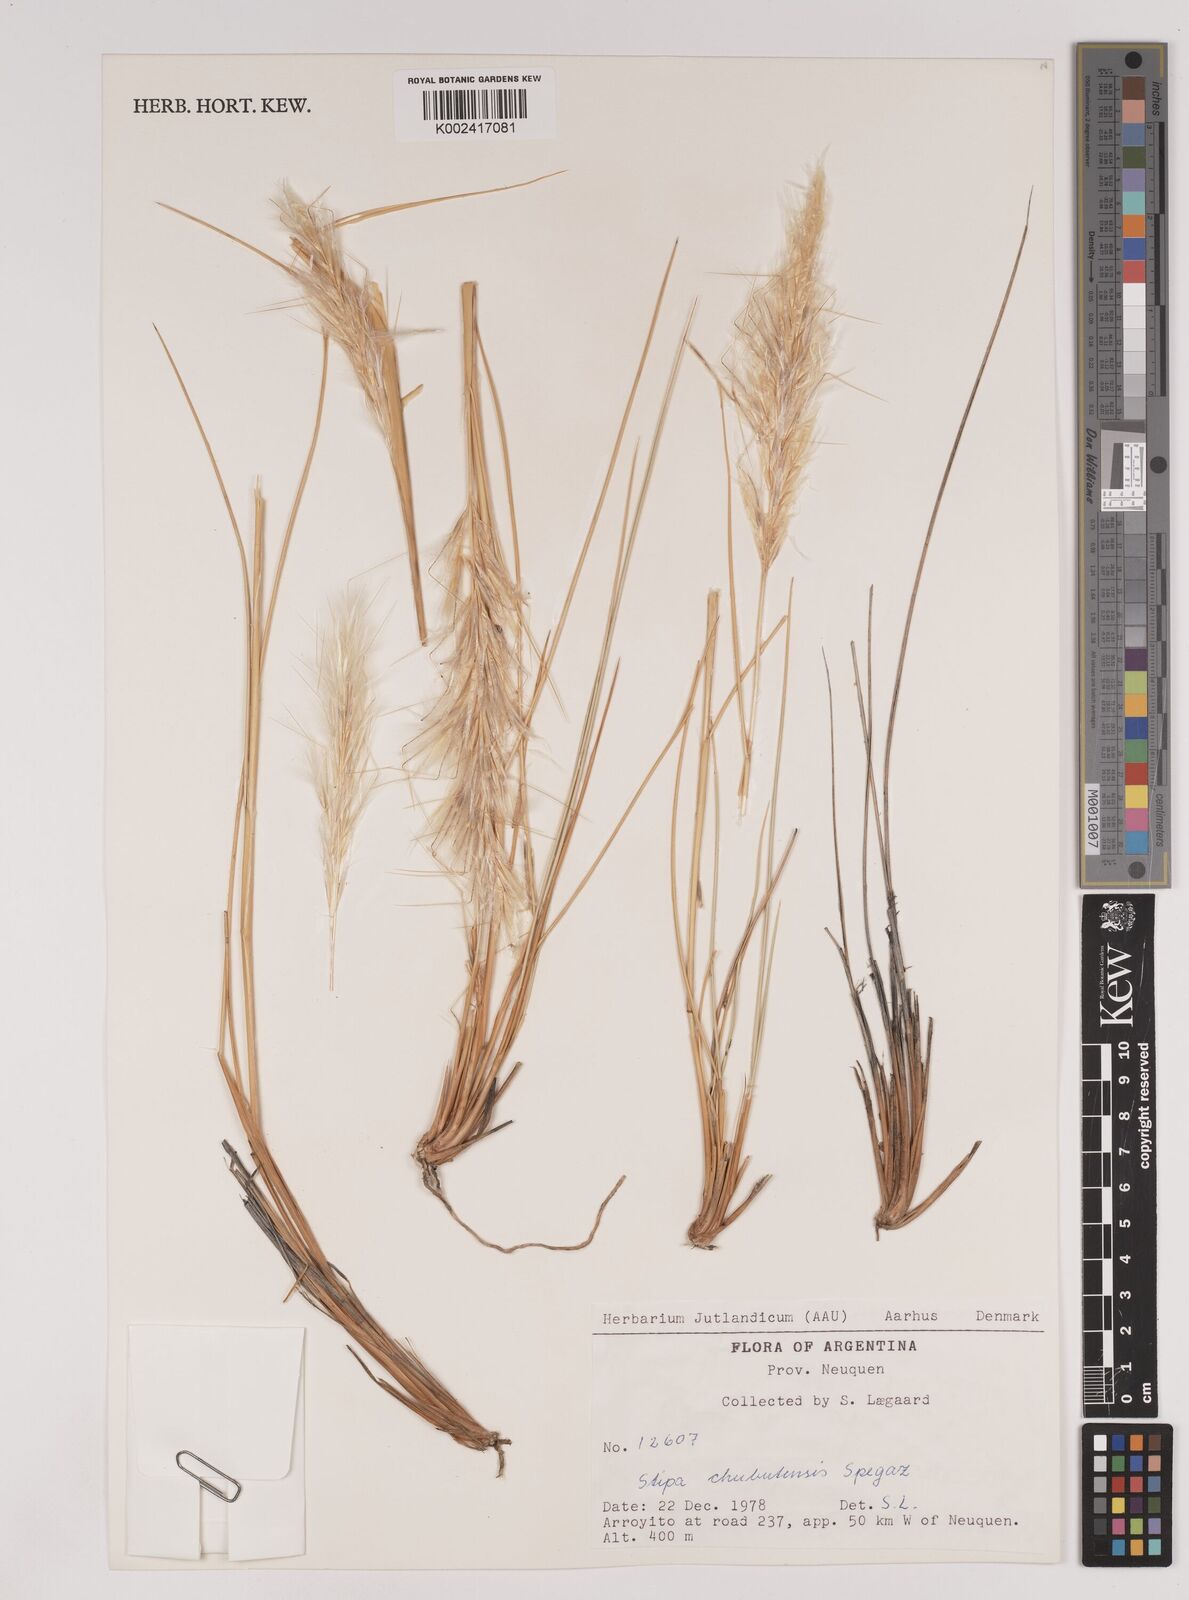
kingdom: Plantae
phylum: Tracheophyta
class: Liliopsida
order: Poales
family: Poaceae
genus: Pappostipa
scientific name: Pappostipa chubutensis
